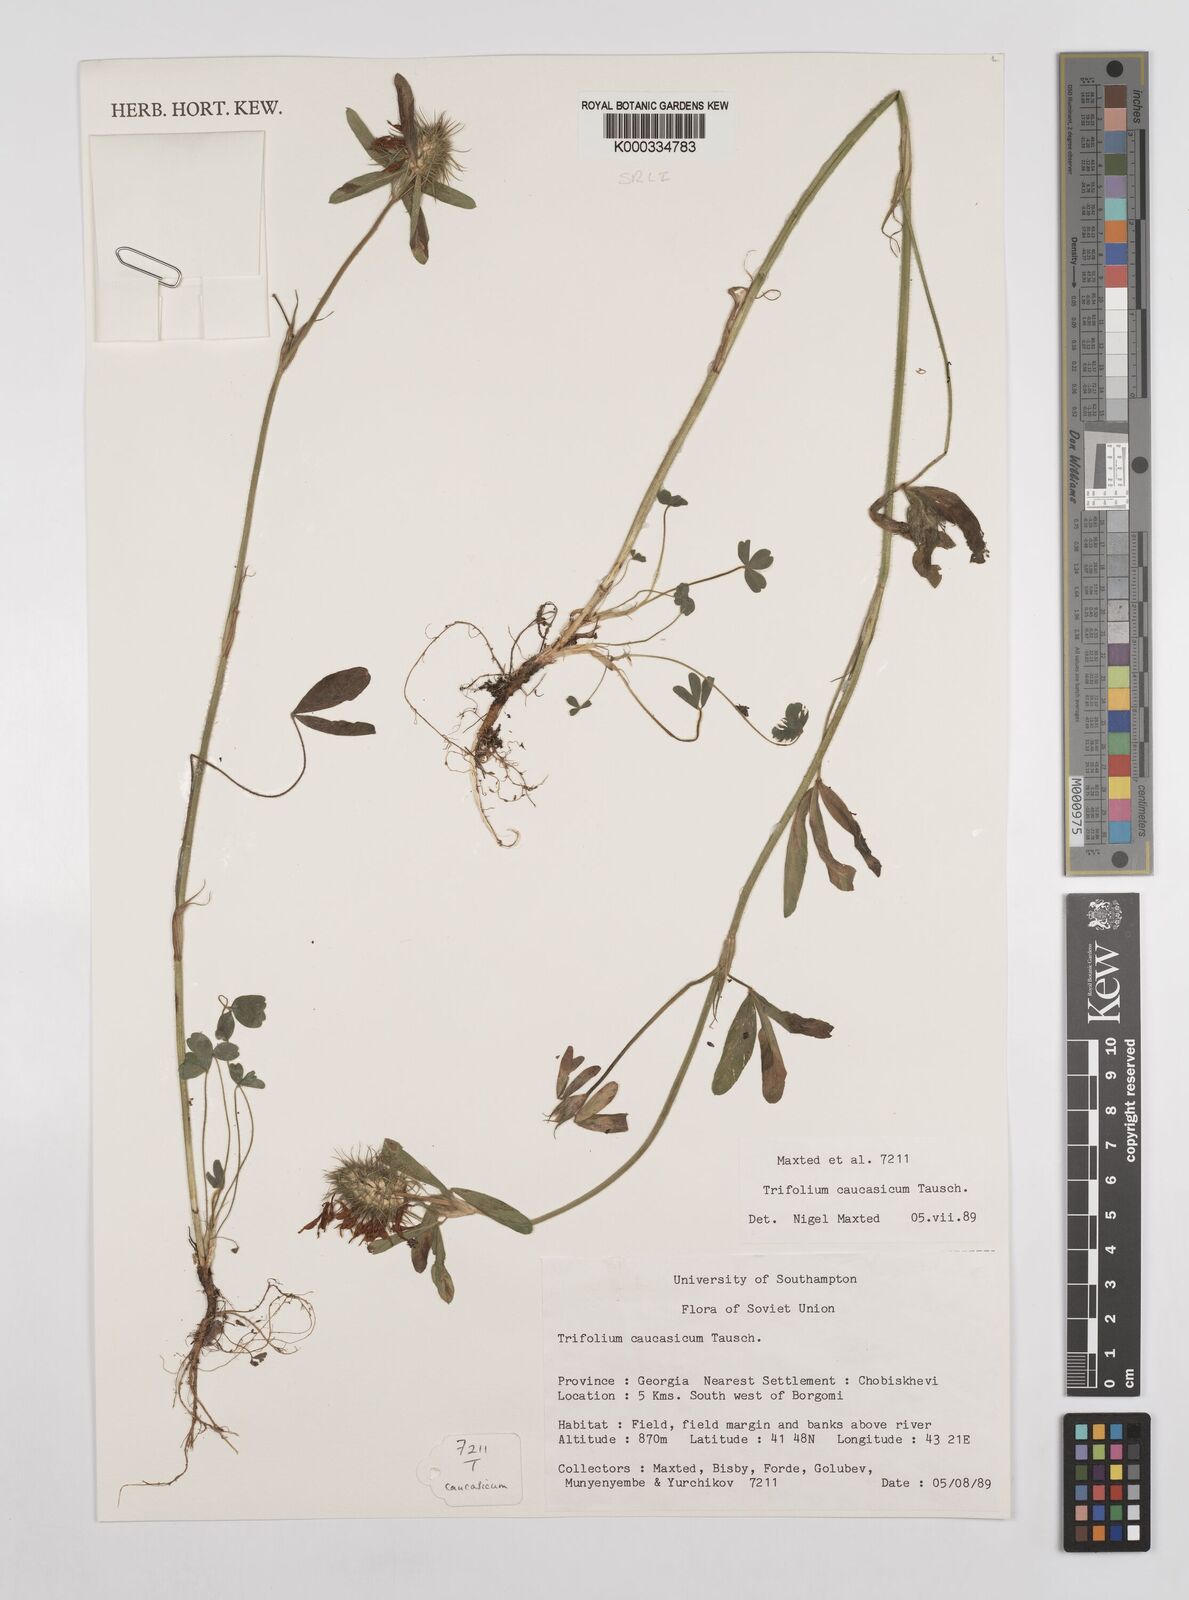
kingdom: Plantae
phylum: Tracheophyta
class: Magnoliopsida
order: Fabales
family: Fabaceae
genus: Trifolium
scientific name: Trifolium ochroleucon
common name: Sulphur clover
